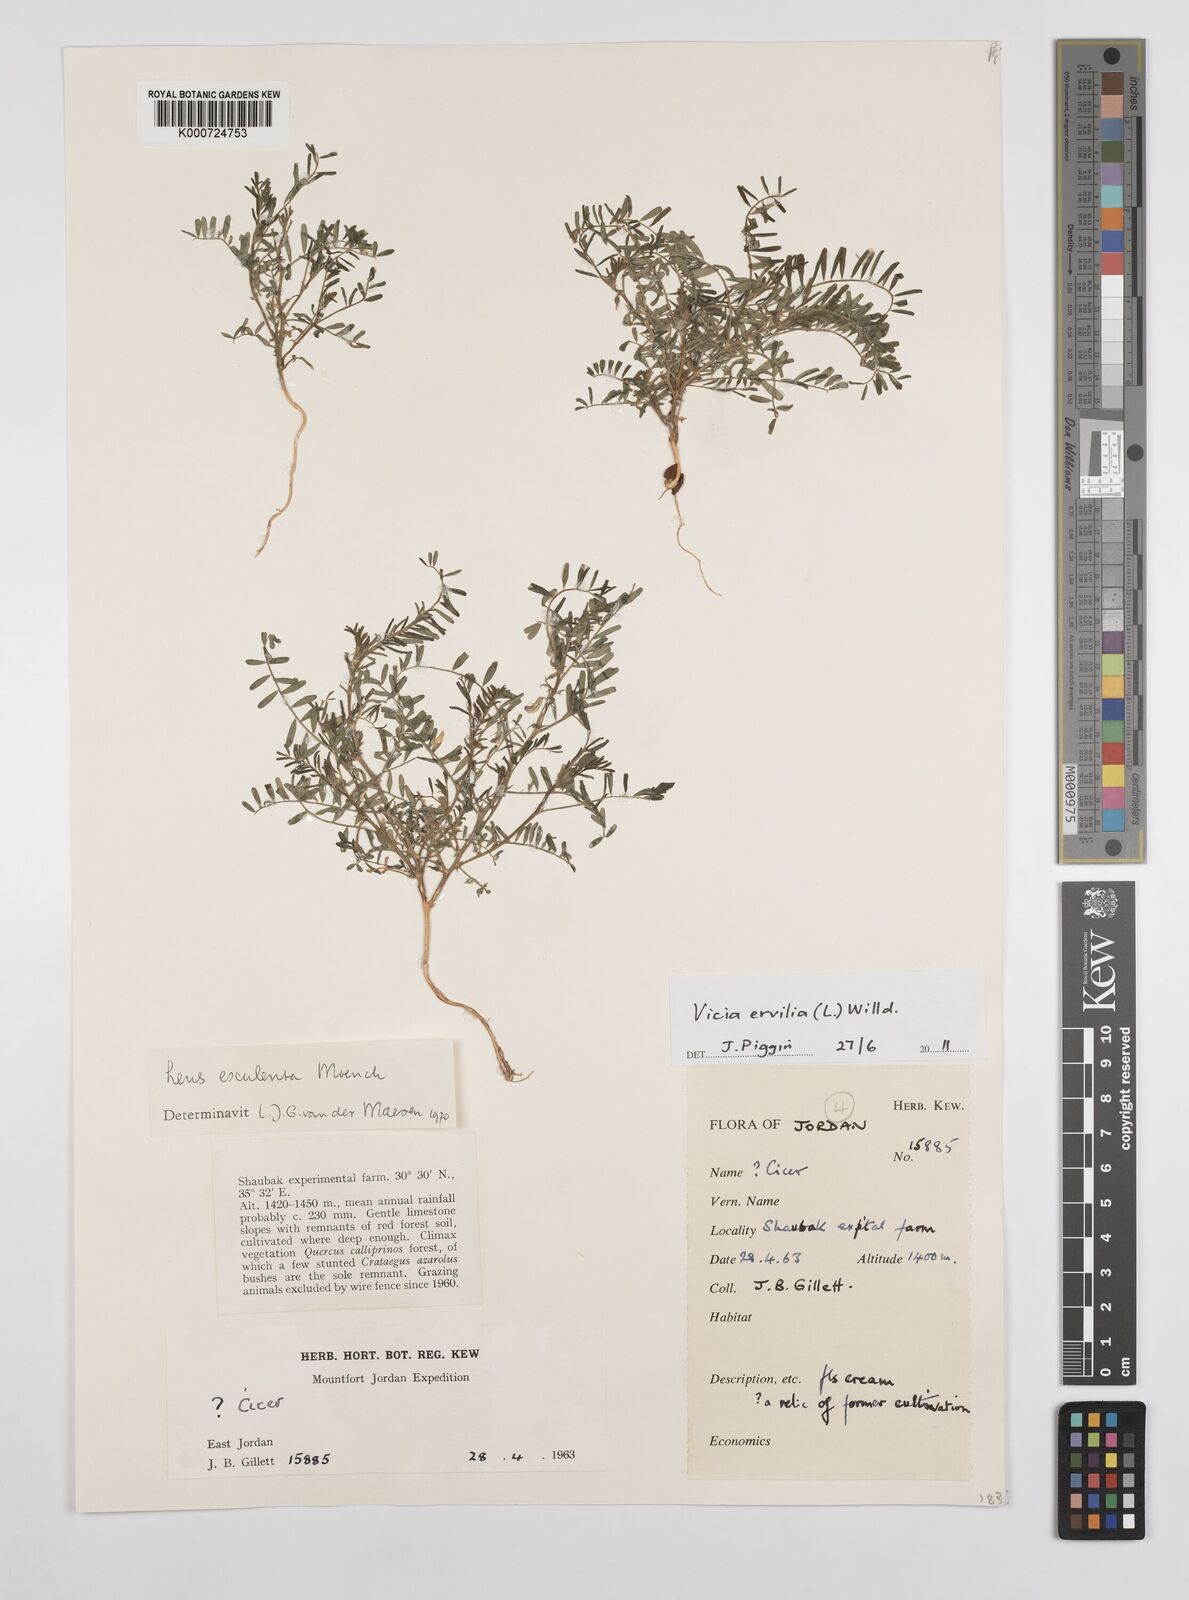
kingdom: Plantae
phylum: Tracheophyta
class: Magnoliopsida
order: Fabales
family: Fabaceae
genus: Vicia
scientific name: Vicia ervilia
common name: Bitter vetch
